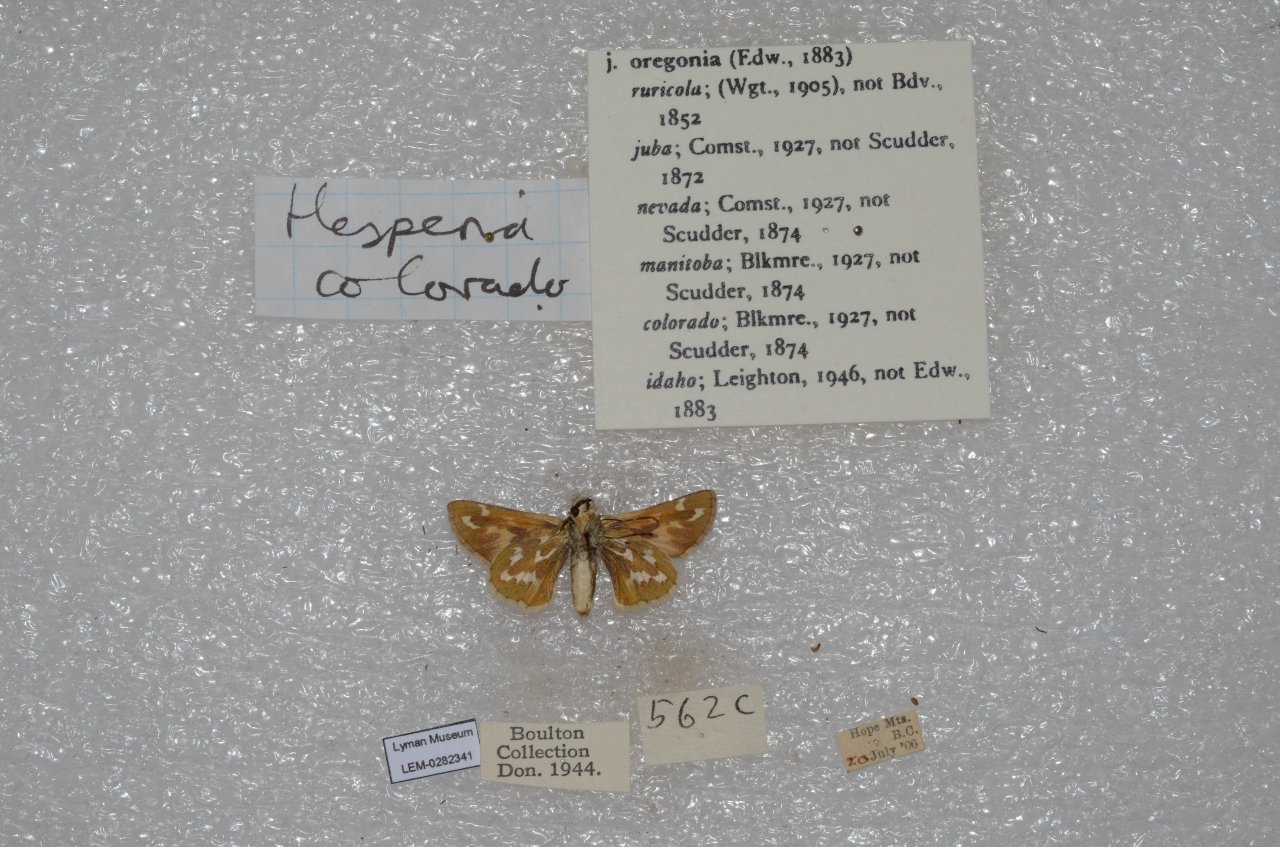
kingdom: Animalia
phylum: Arthropoda
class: Insecta
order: Lepidoptera
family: Hesperiidae
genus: Hesperia
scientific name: Hesperia comma
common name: Western Branded Skipper
